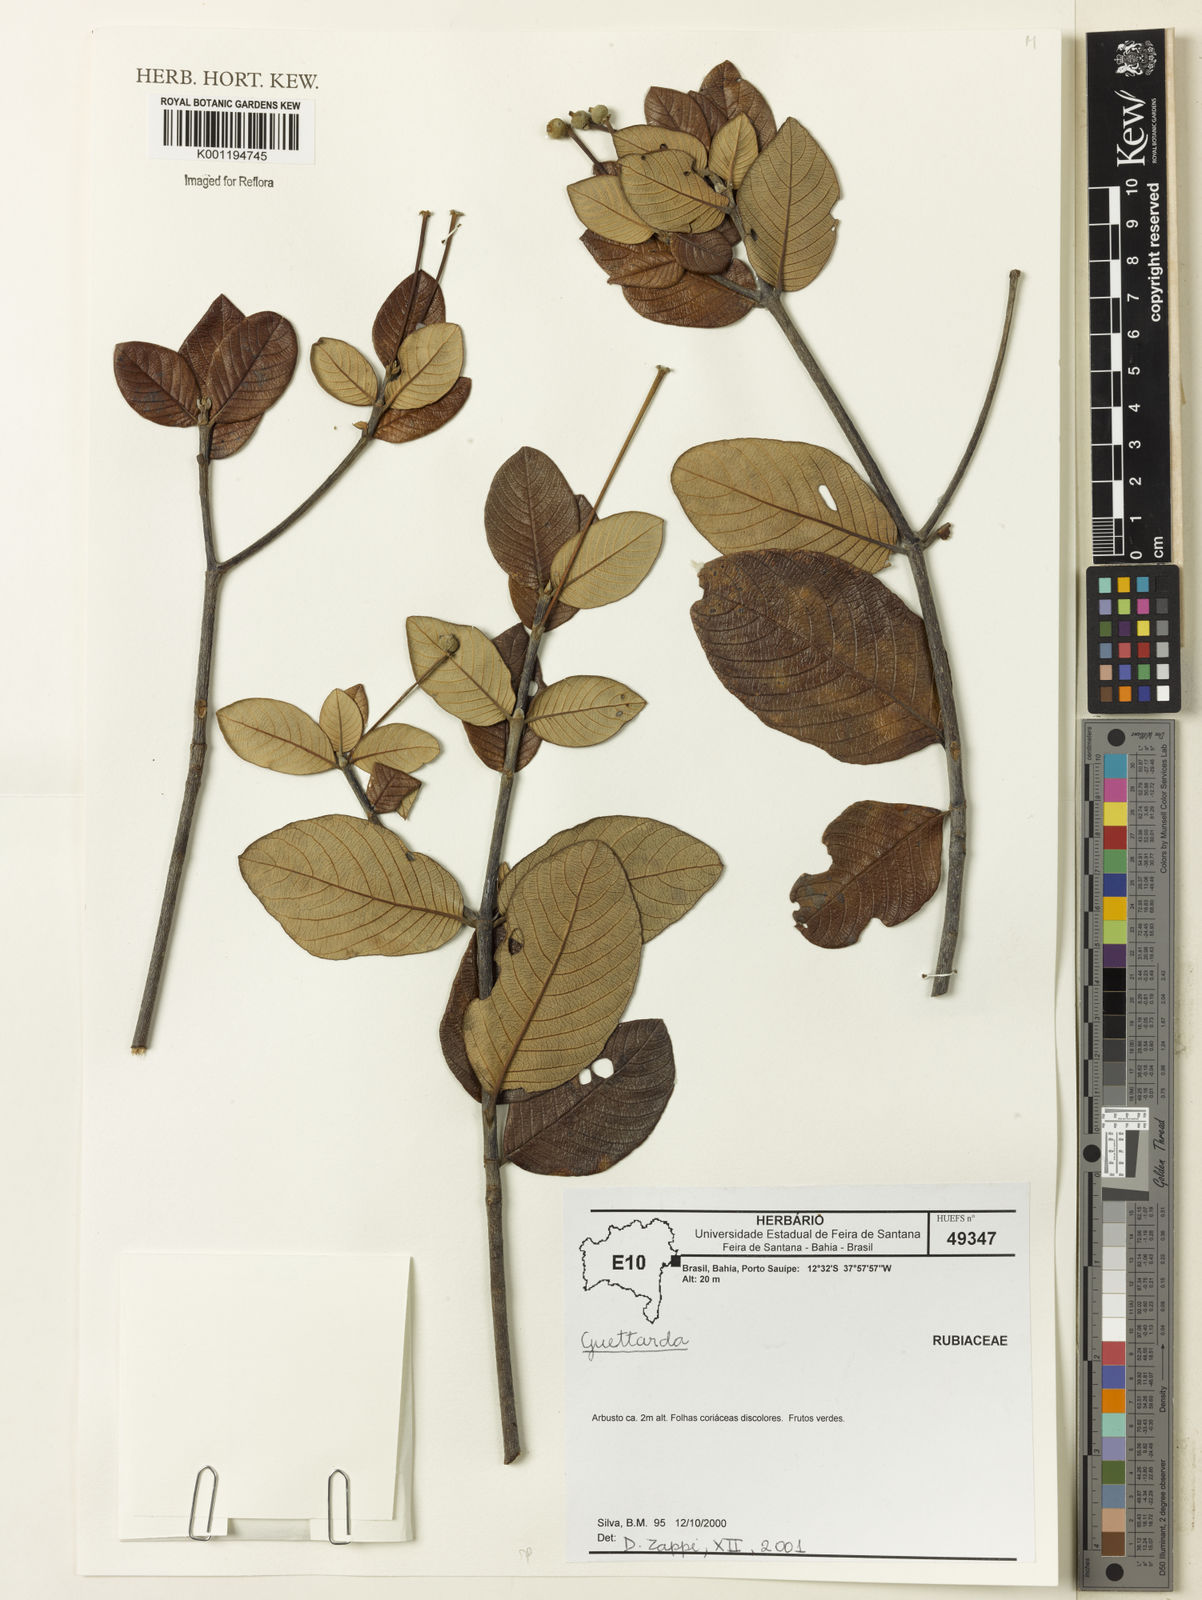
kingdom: Plantae
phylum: Tracheophyta
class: Magnoliopsida
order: Gentianales
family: Rubiaceae
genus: Guettarda
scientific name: Guettarda
